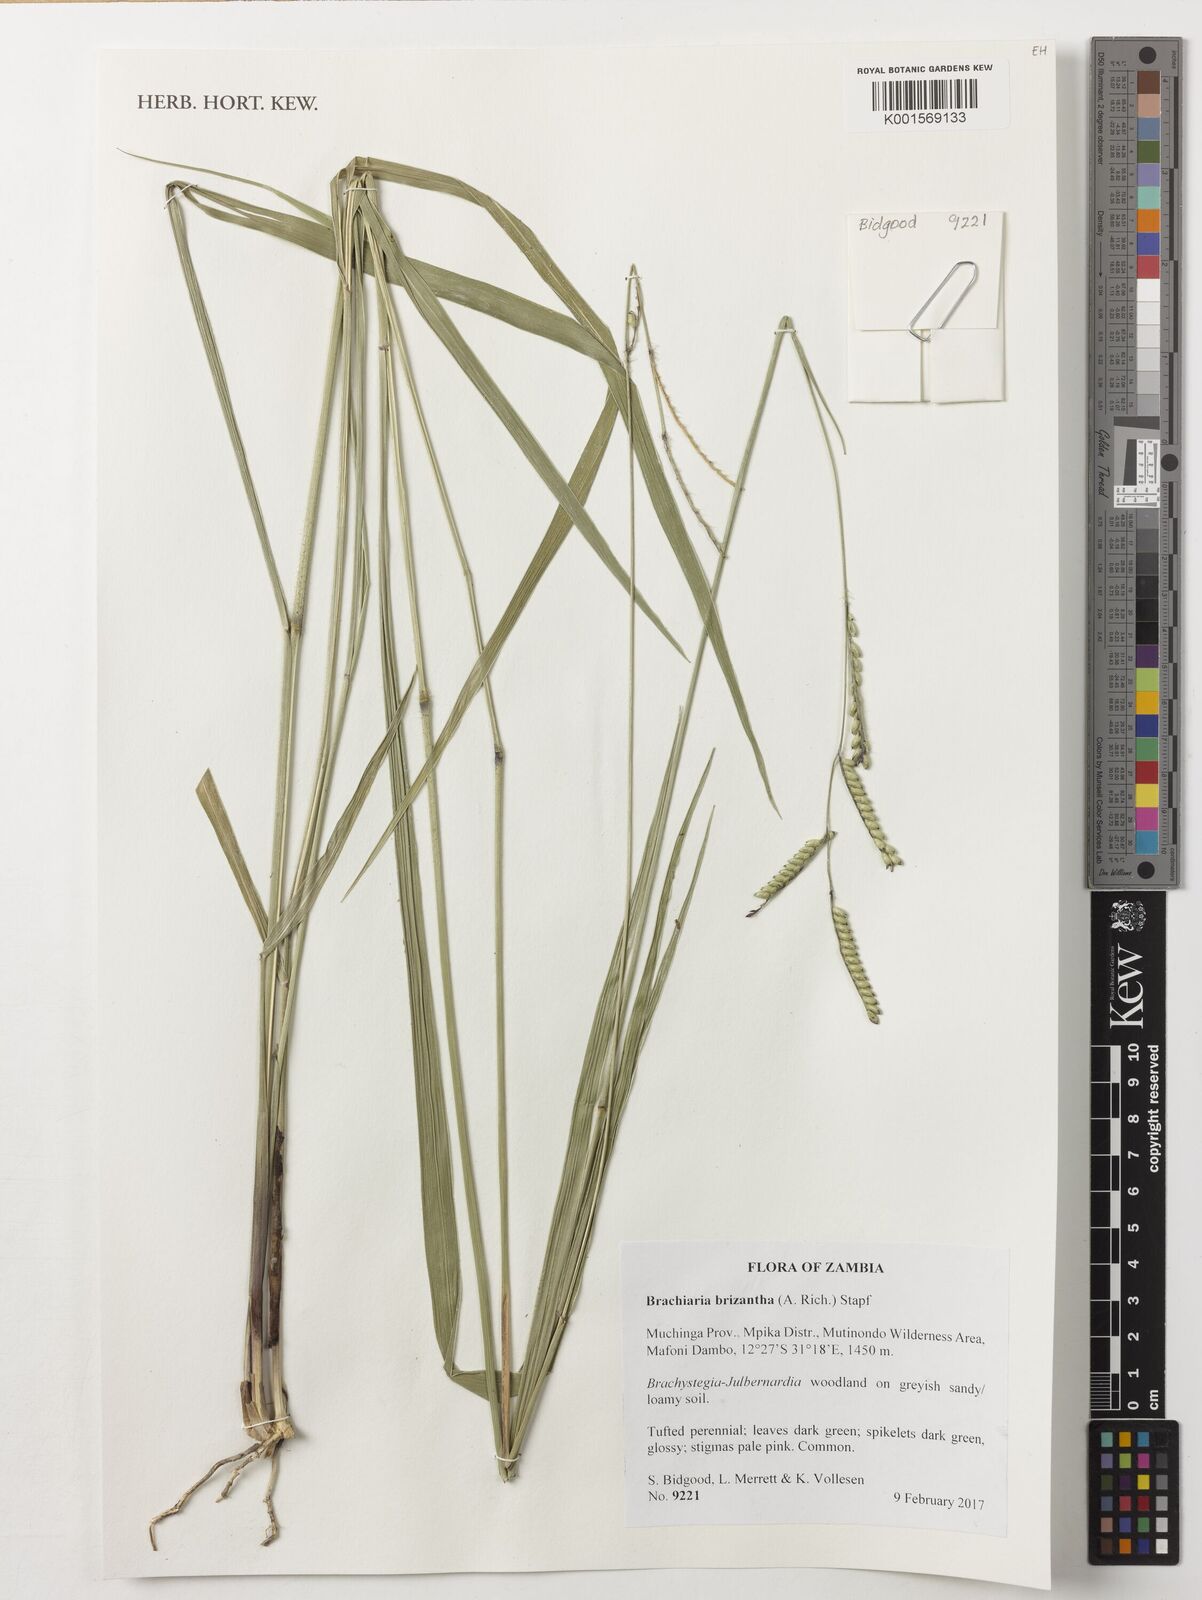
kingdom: Plantae
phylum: Tracheophyta
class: Liliopsida
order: Poales
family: Poaceae
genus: Urochloa
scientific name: Urochloa brizantha
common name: Palisade signalgrass
